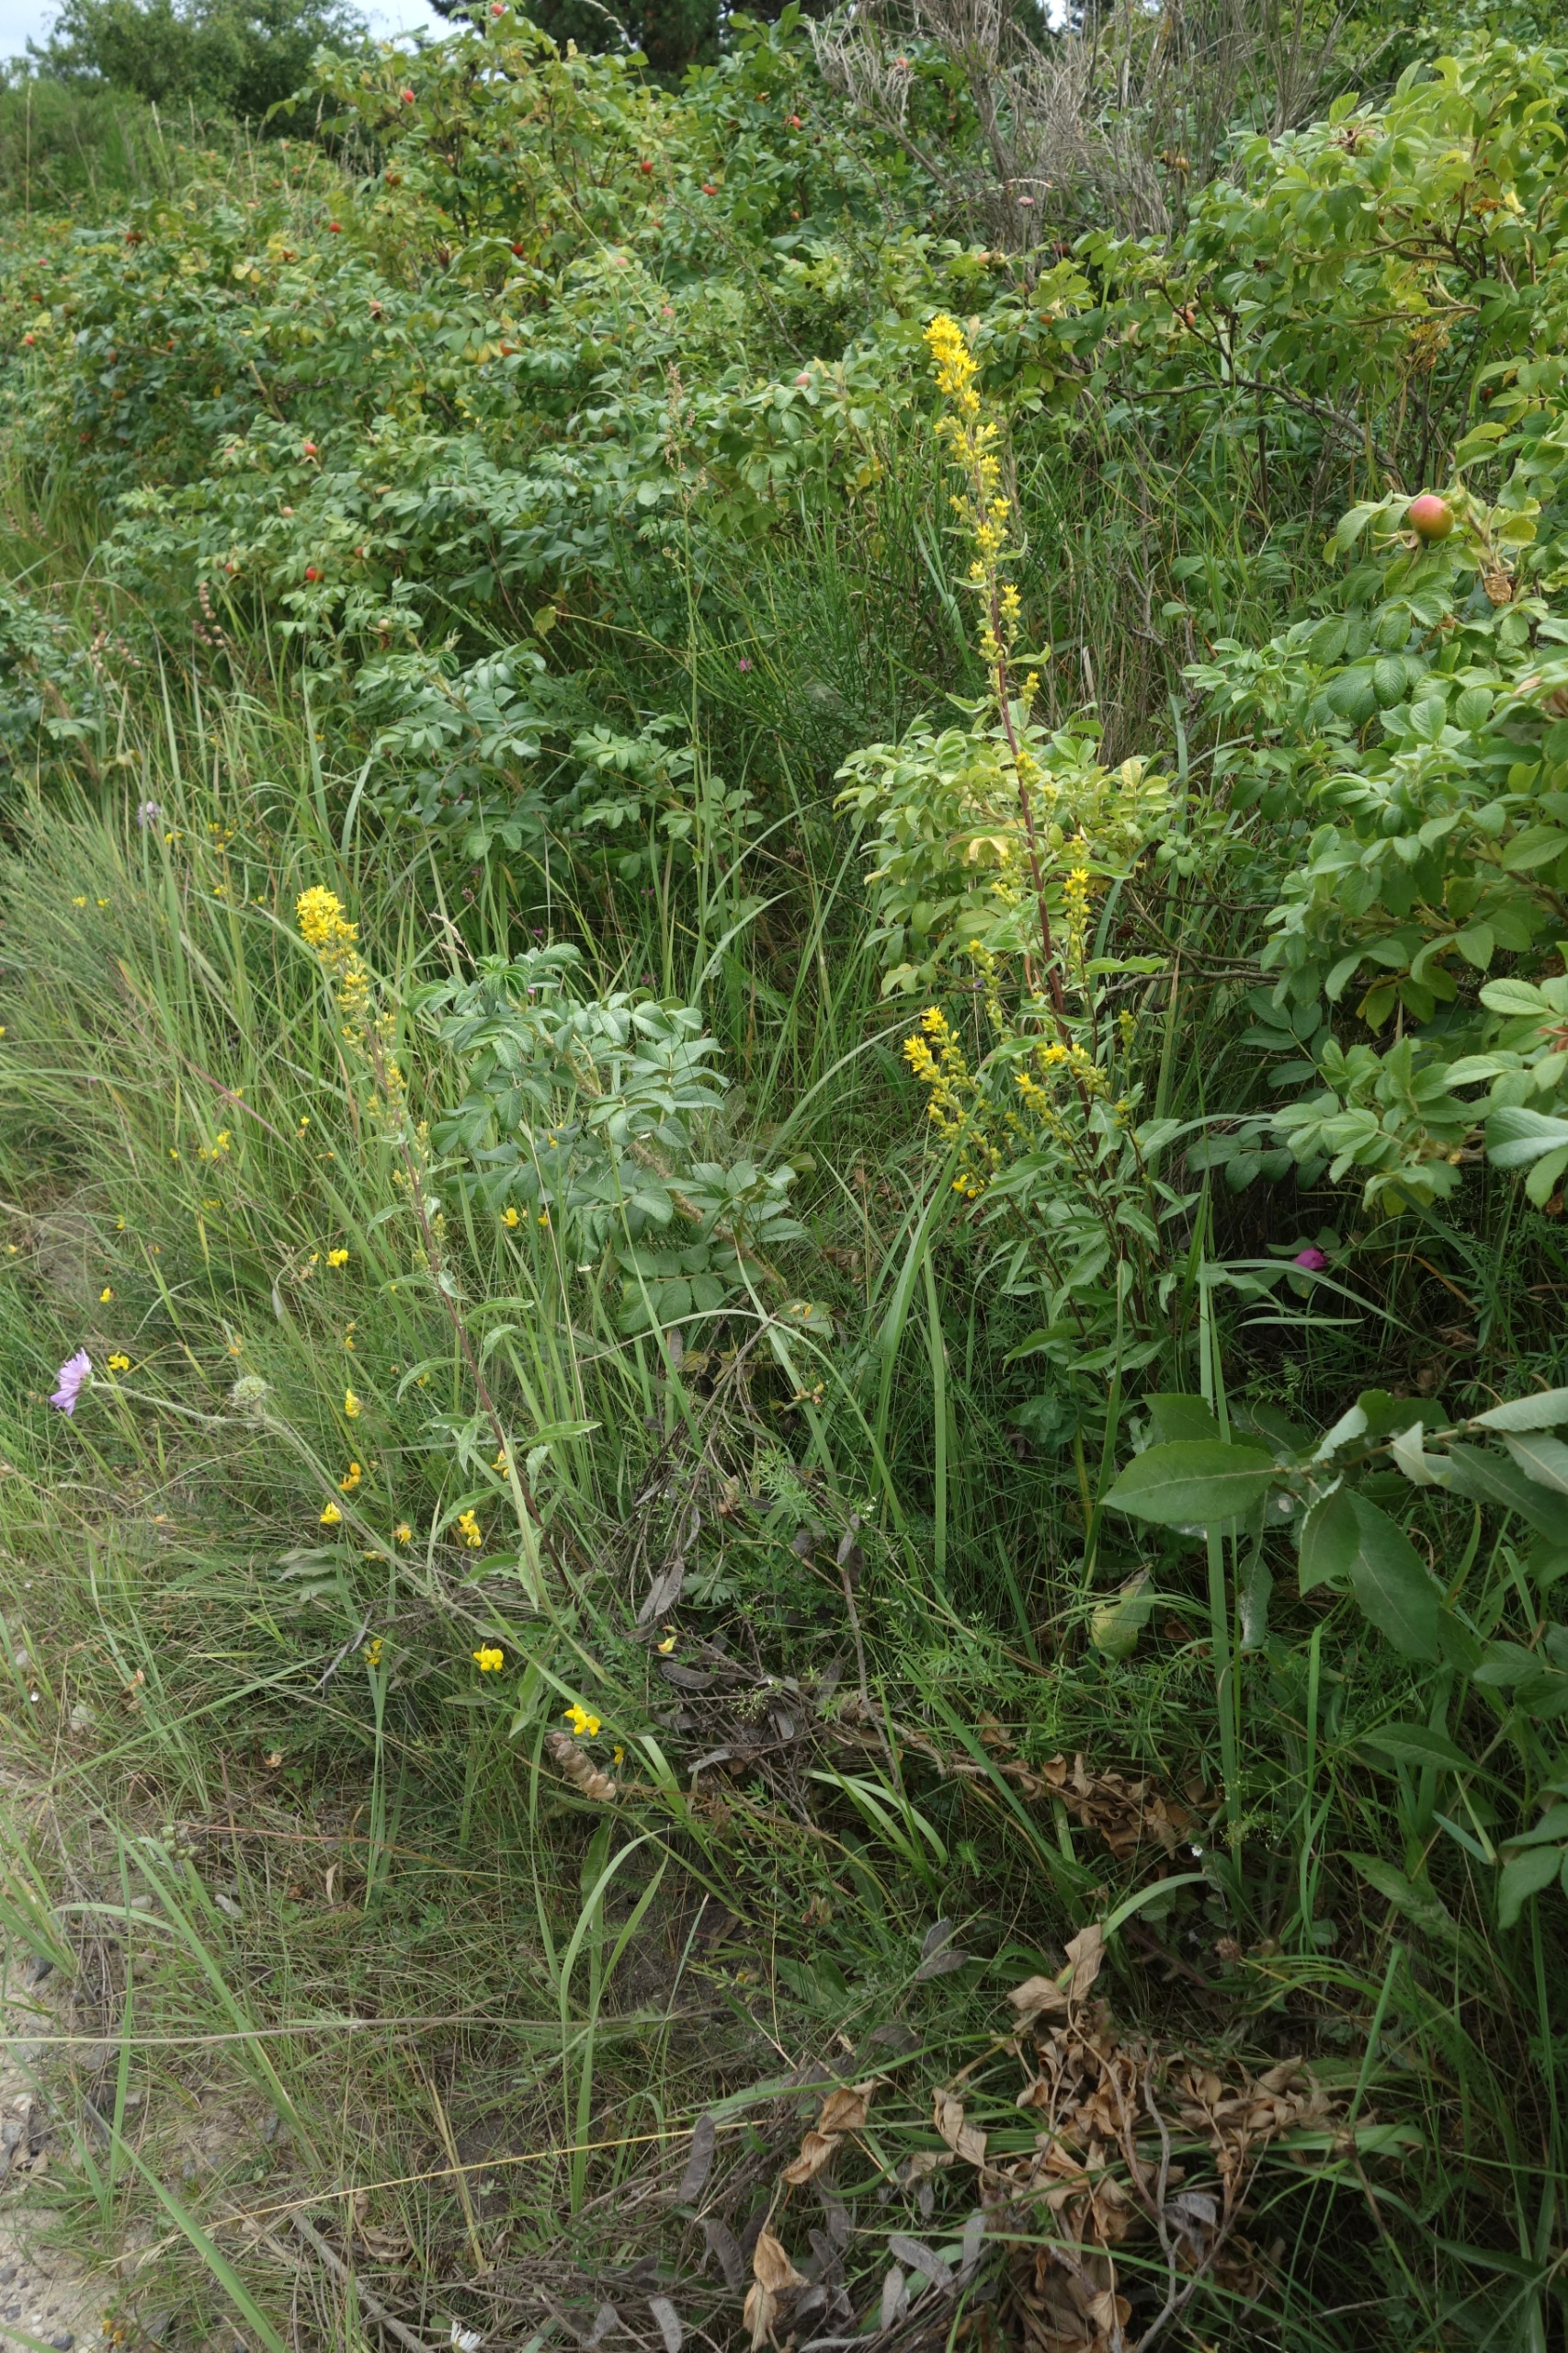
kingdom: Plantae
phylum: Tracheophyta
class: Magnoliopsida
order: Asterales
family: Asteraceae
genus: Solidago
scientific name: Solidago virgaurea
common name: Almindelig gyldenris
